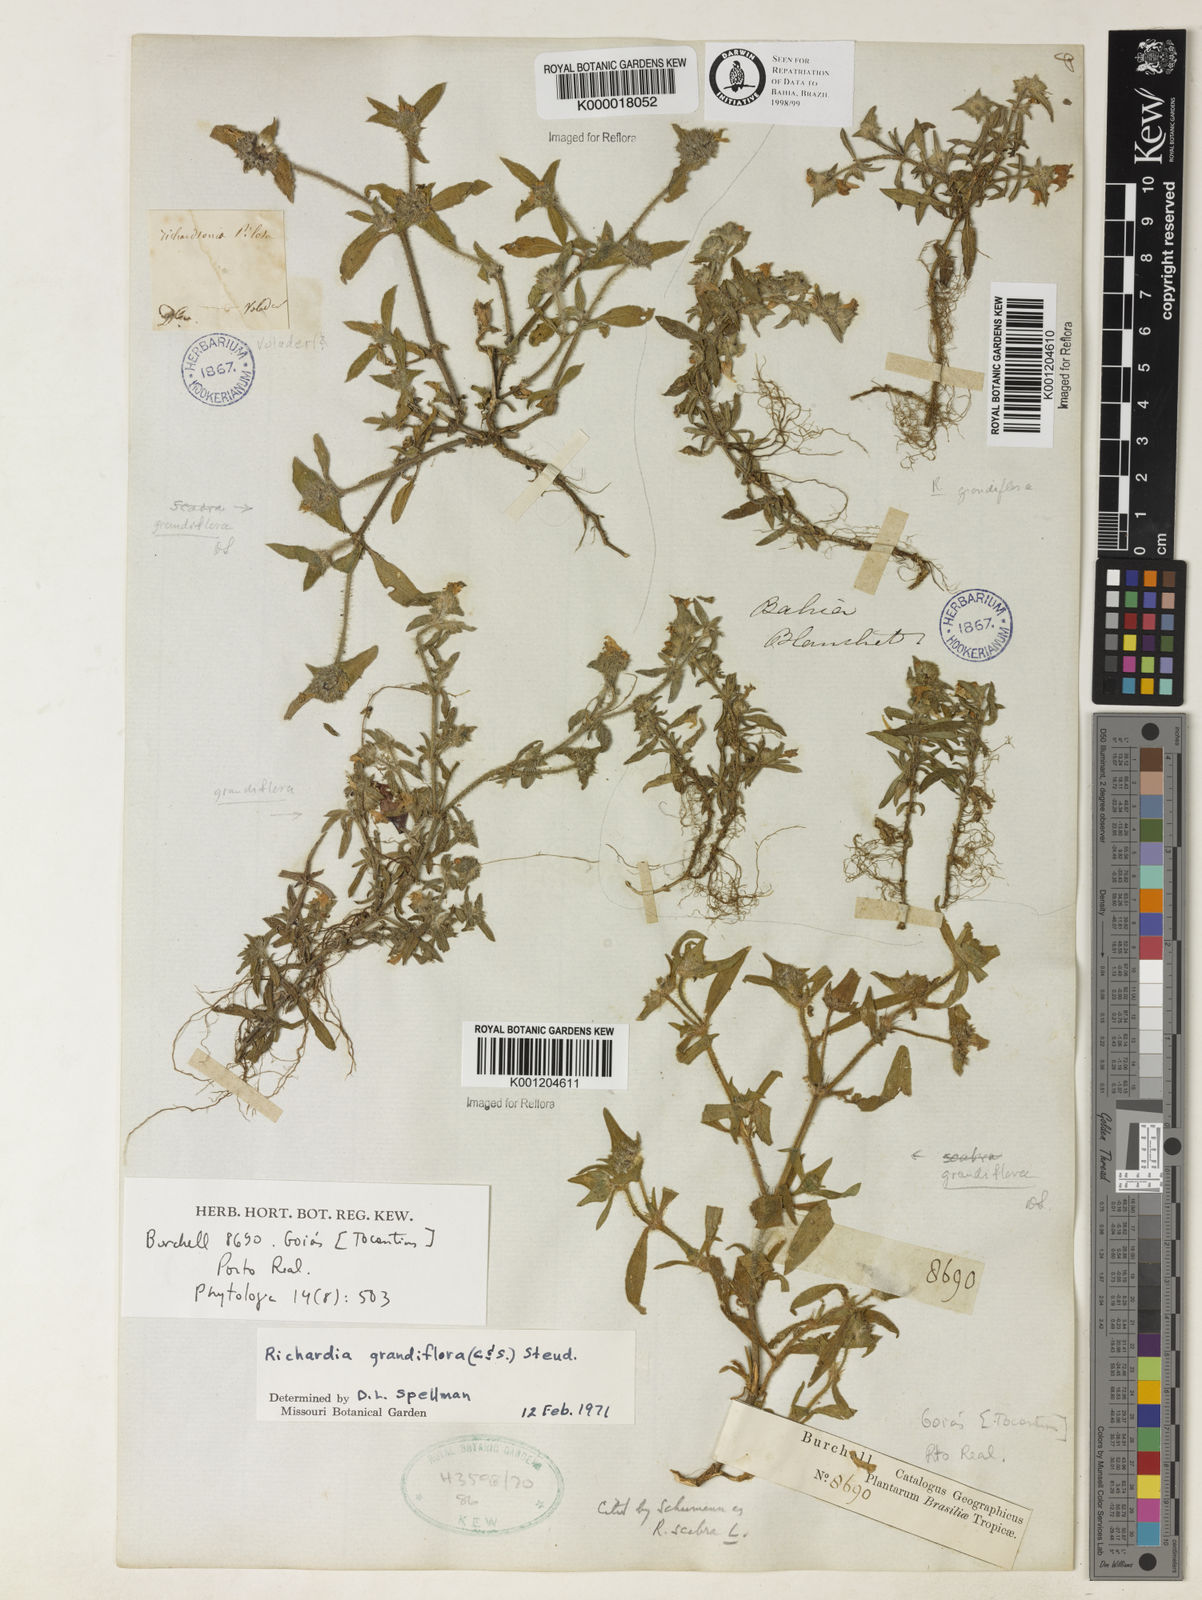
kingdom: Plantae
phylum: Tracheophyta
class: Magnoliopsida
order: Gentianales
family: Rubiaceae
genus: Richardia
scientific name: Richardia grandiflora
